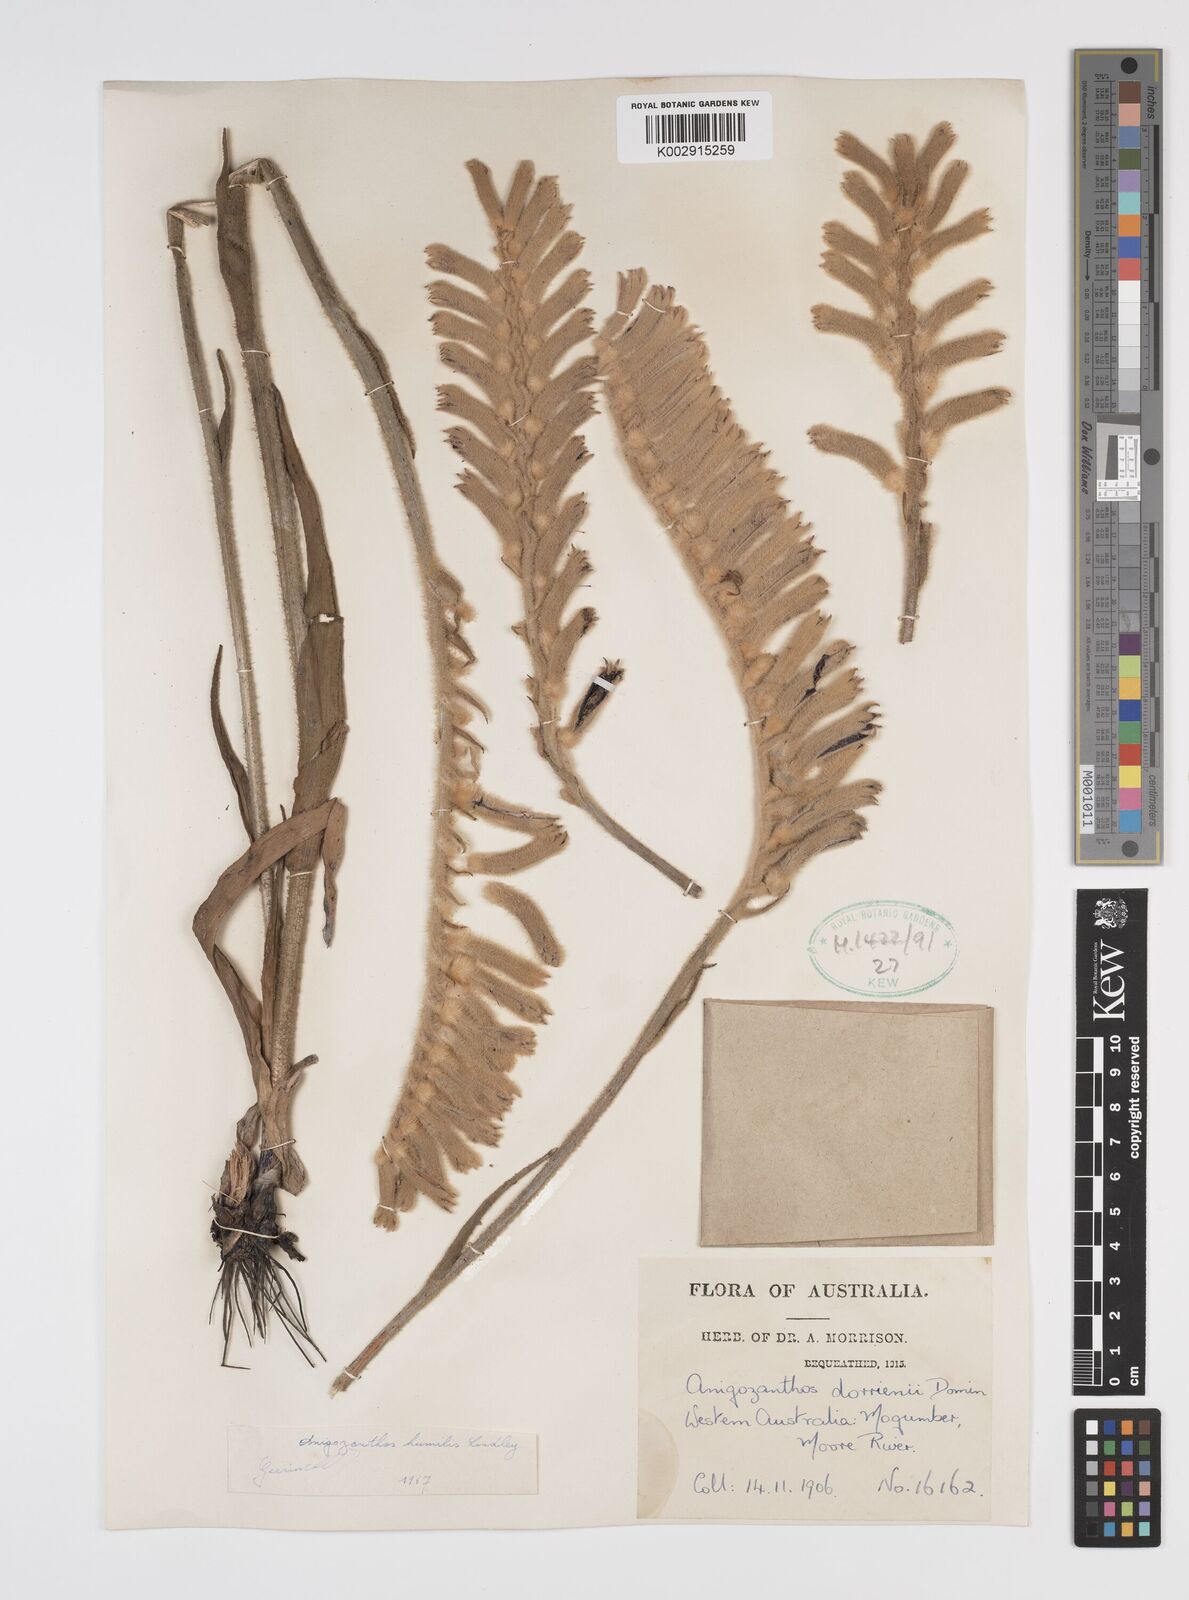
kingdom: Plantae
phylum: Tracheophyta
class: Liliopsida
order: Commelinales
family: Haemodoraceae
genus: Anigozanthos
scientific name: Anigozanthos humilis
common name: Cat's-paw
